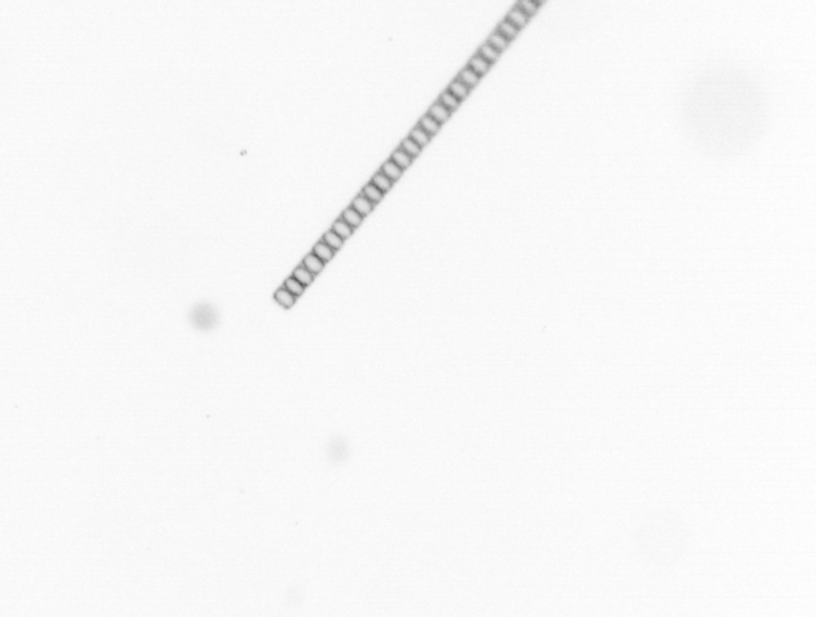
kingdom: Chromista
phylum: Ochrophyta
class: Bacillariophyceae
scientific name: Bacillariophyceae
